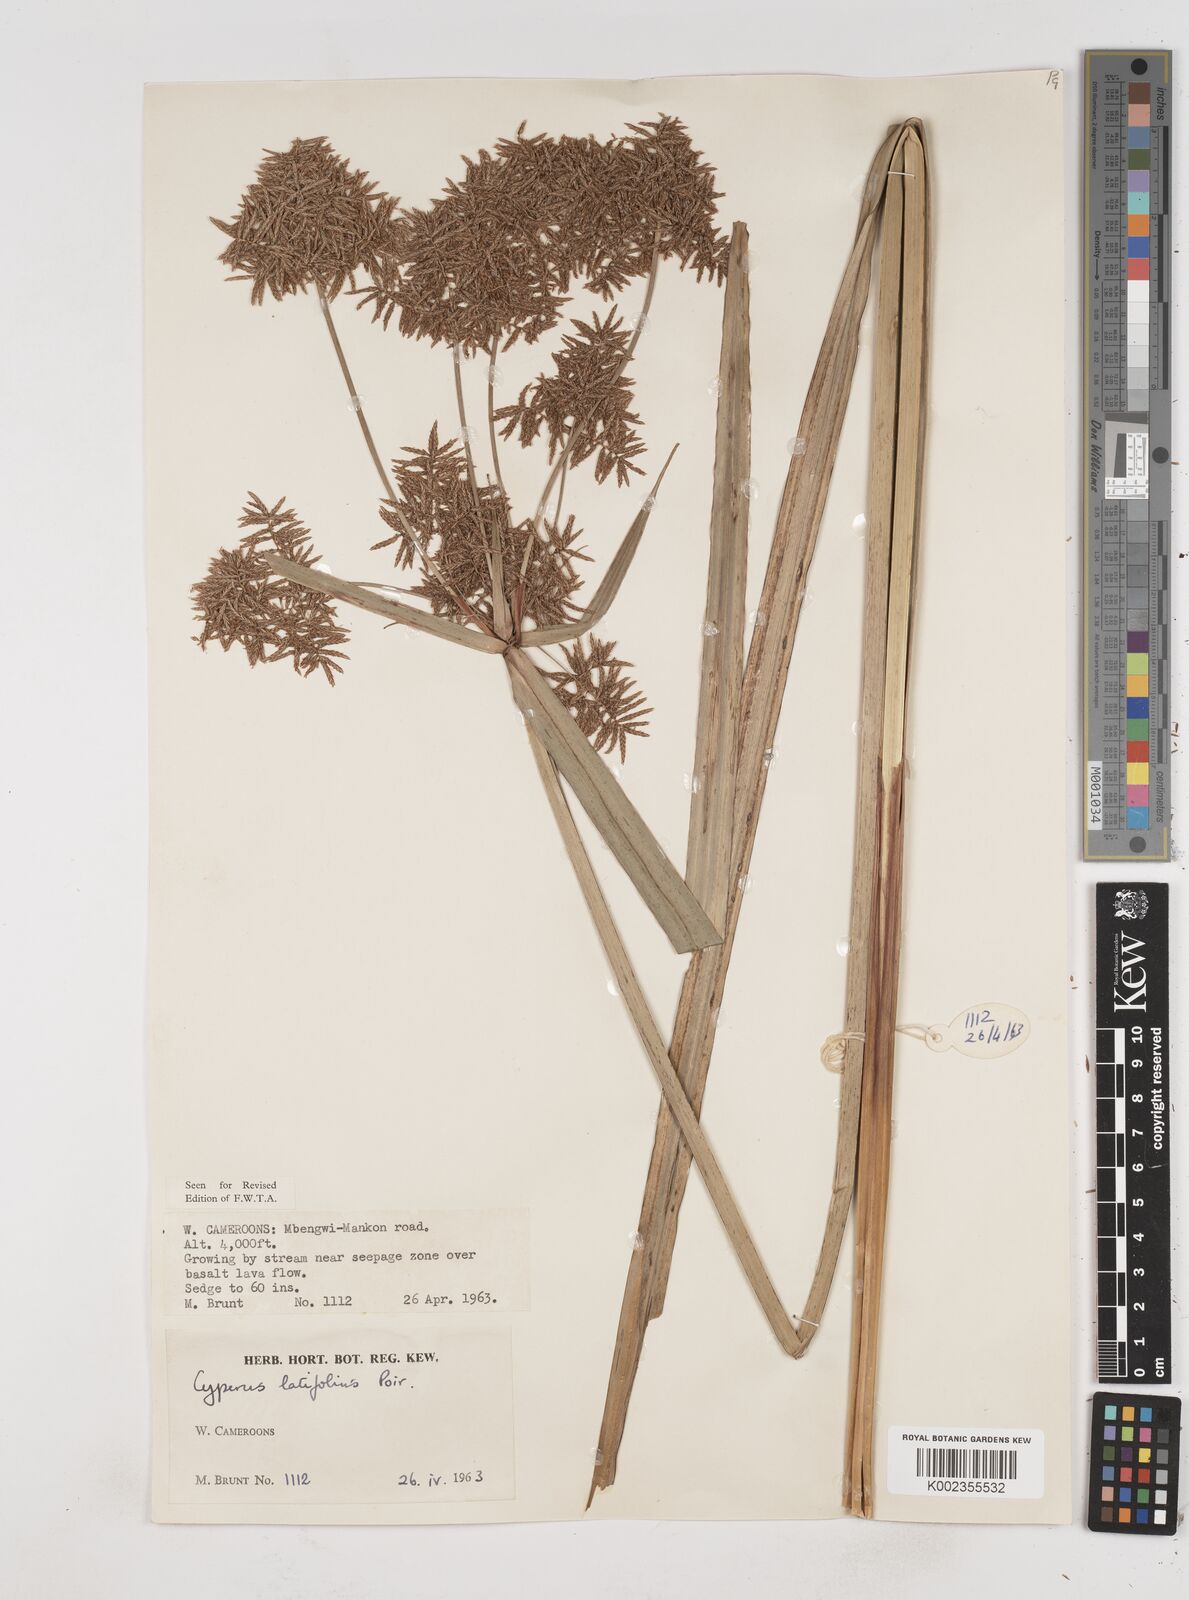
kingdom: Plantae
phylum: Tracheophyta
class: Liliopsida
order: Poales
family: Cyperaceae
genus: Cyperus
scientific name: Cyperus latifolius
